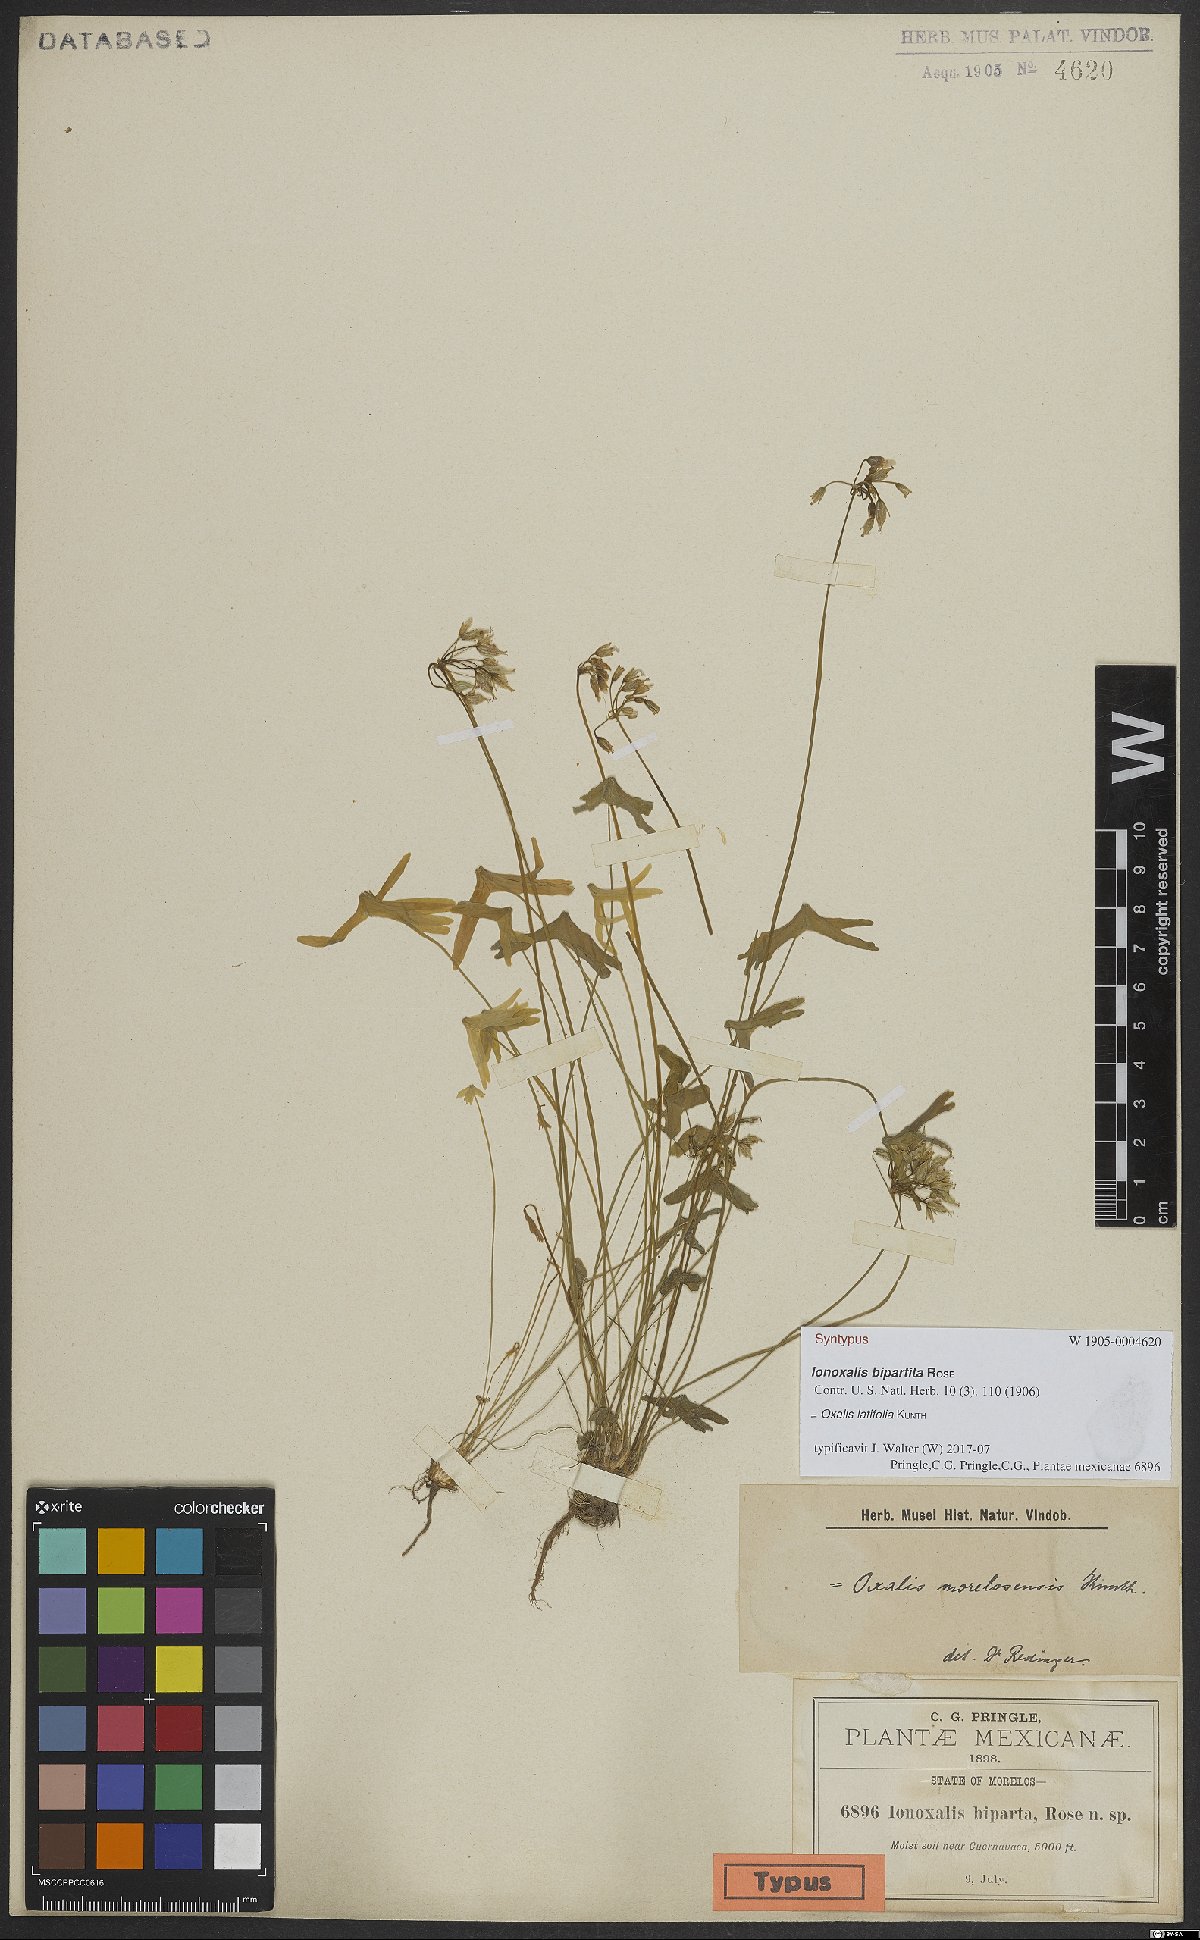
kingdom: Plantae
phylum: Tracheophyta
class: Magnoliopsida
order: Oxalidales
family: Oxalidaceae
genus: Oxalis
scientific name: Oxalis latifolia
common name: Garden pink-sorrel
